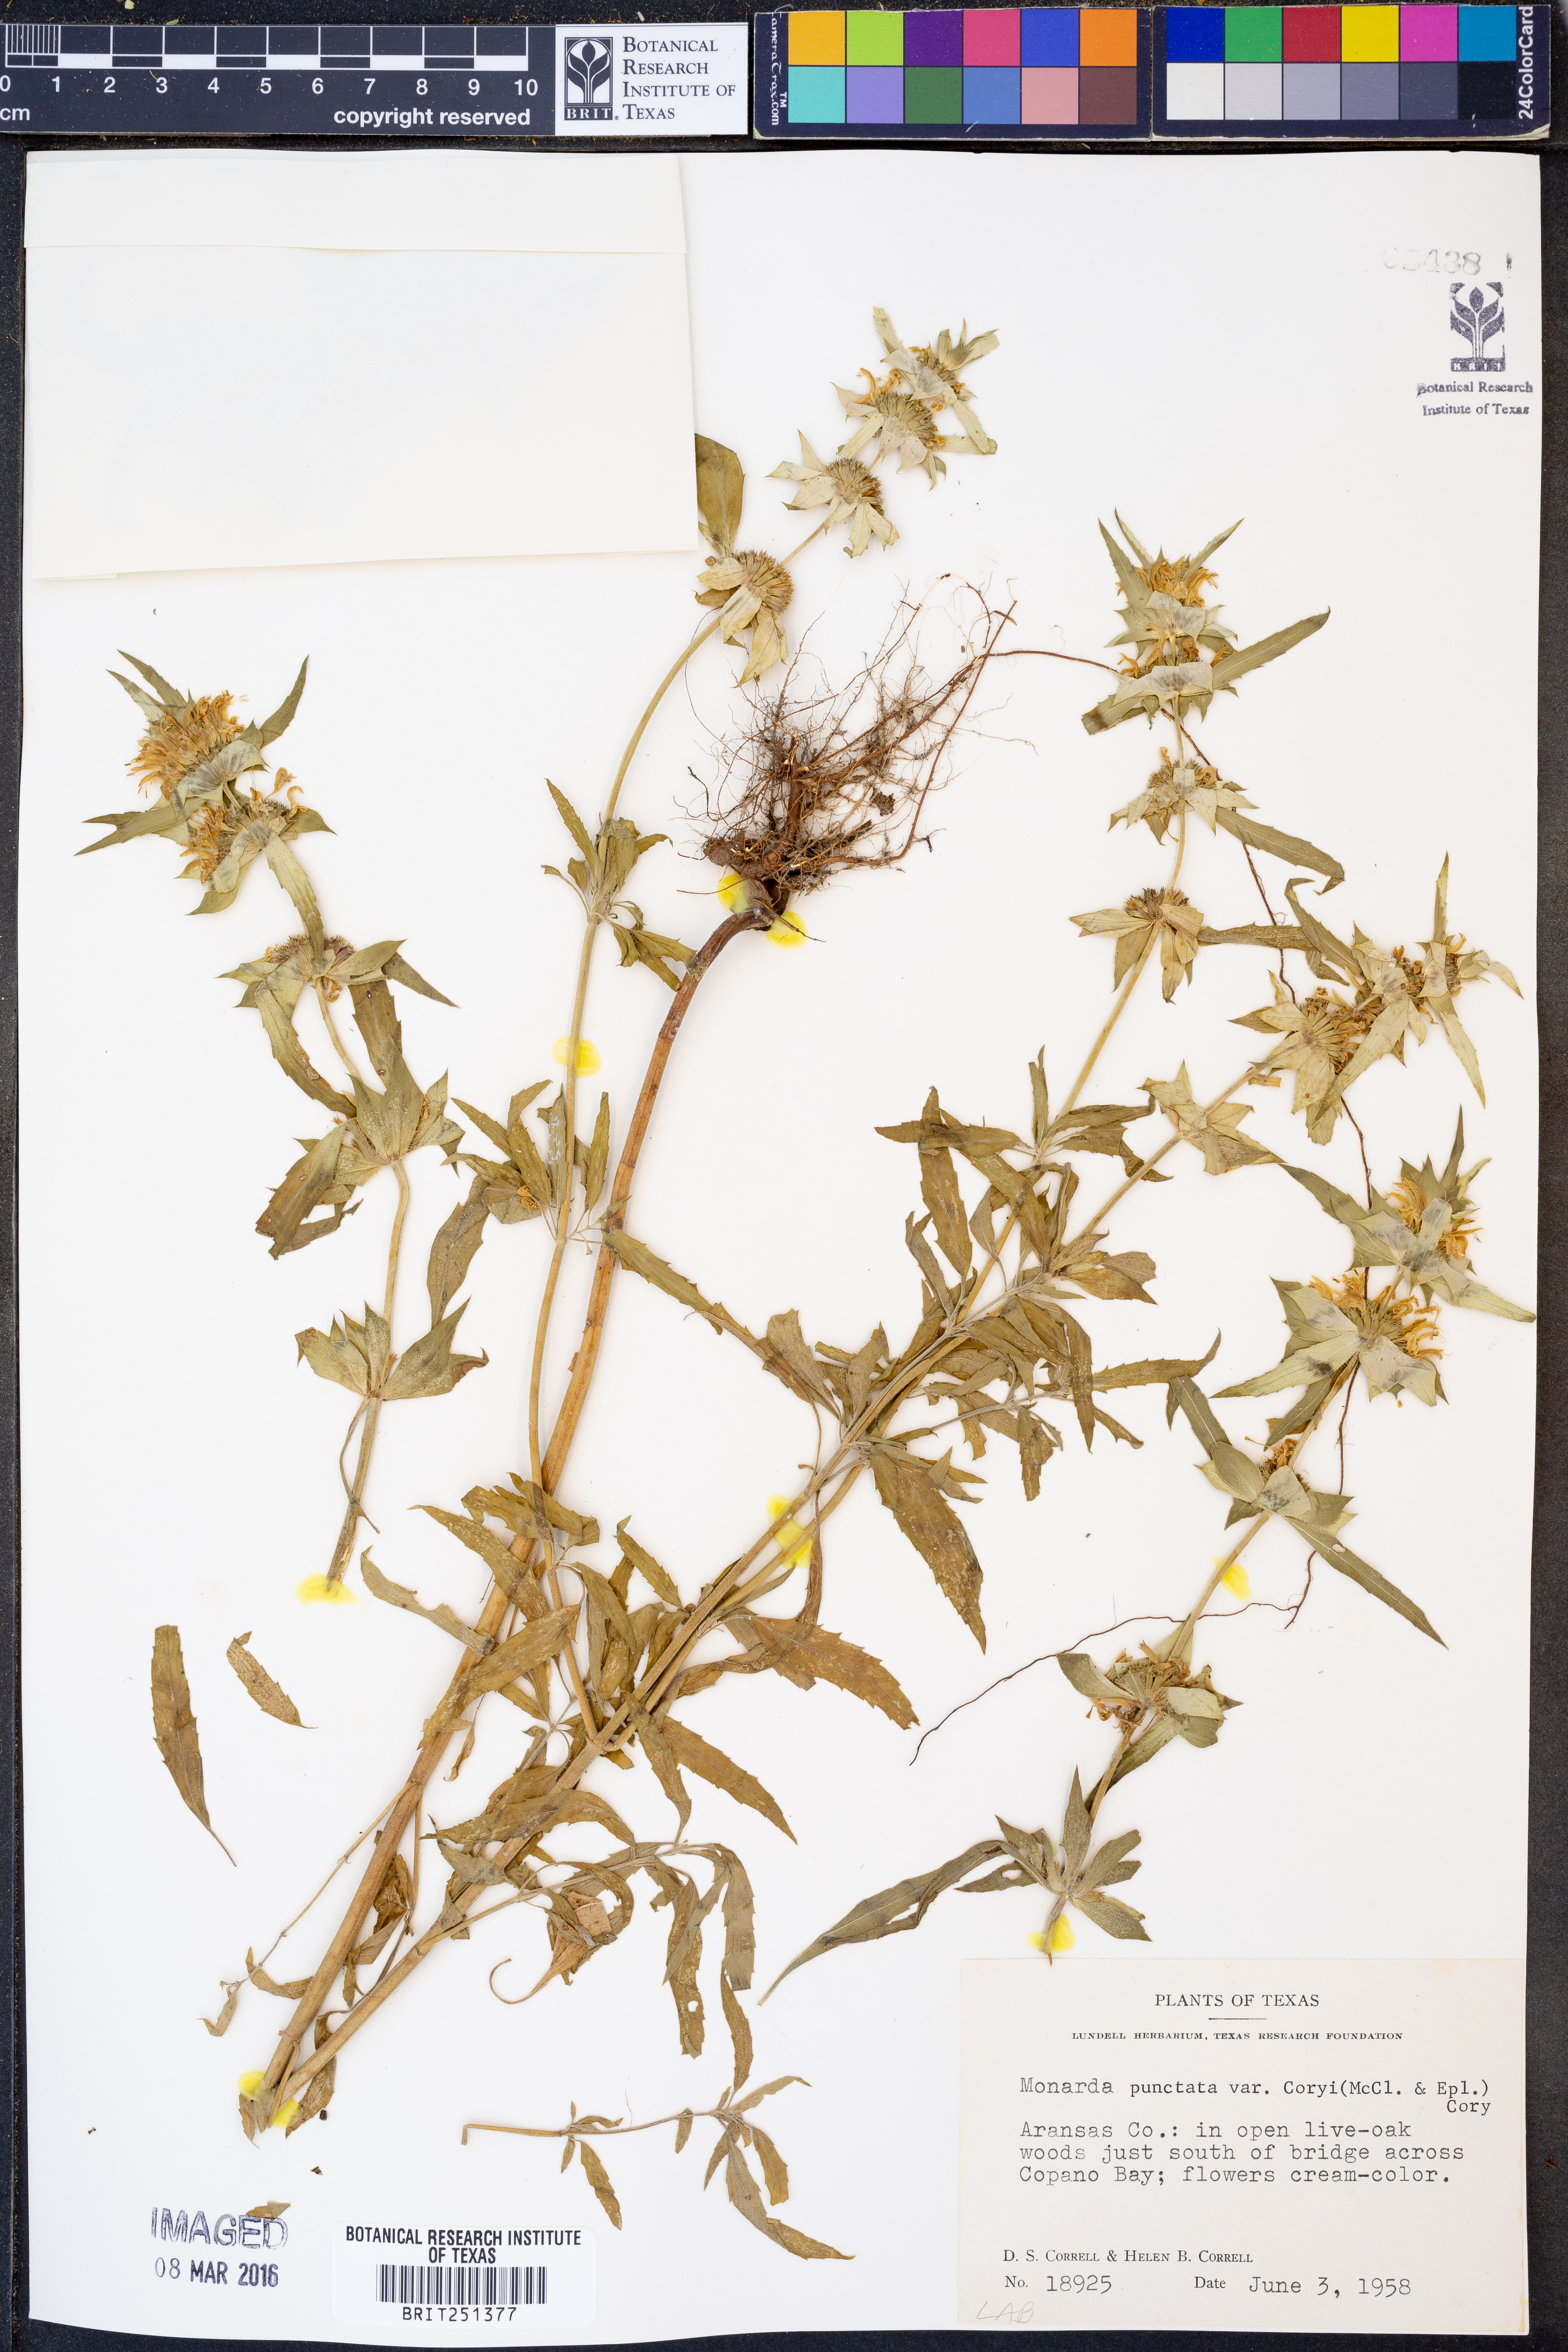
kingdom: Plantae
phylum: Tracheophyta
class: Magnoliopsida
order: Lamiales
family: Lamiaceae
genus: Monarda
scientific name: Monarda punctata
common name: Dotted monarda
